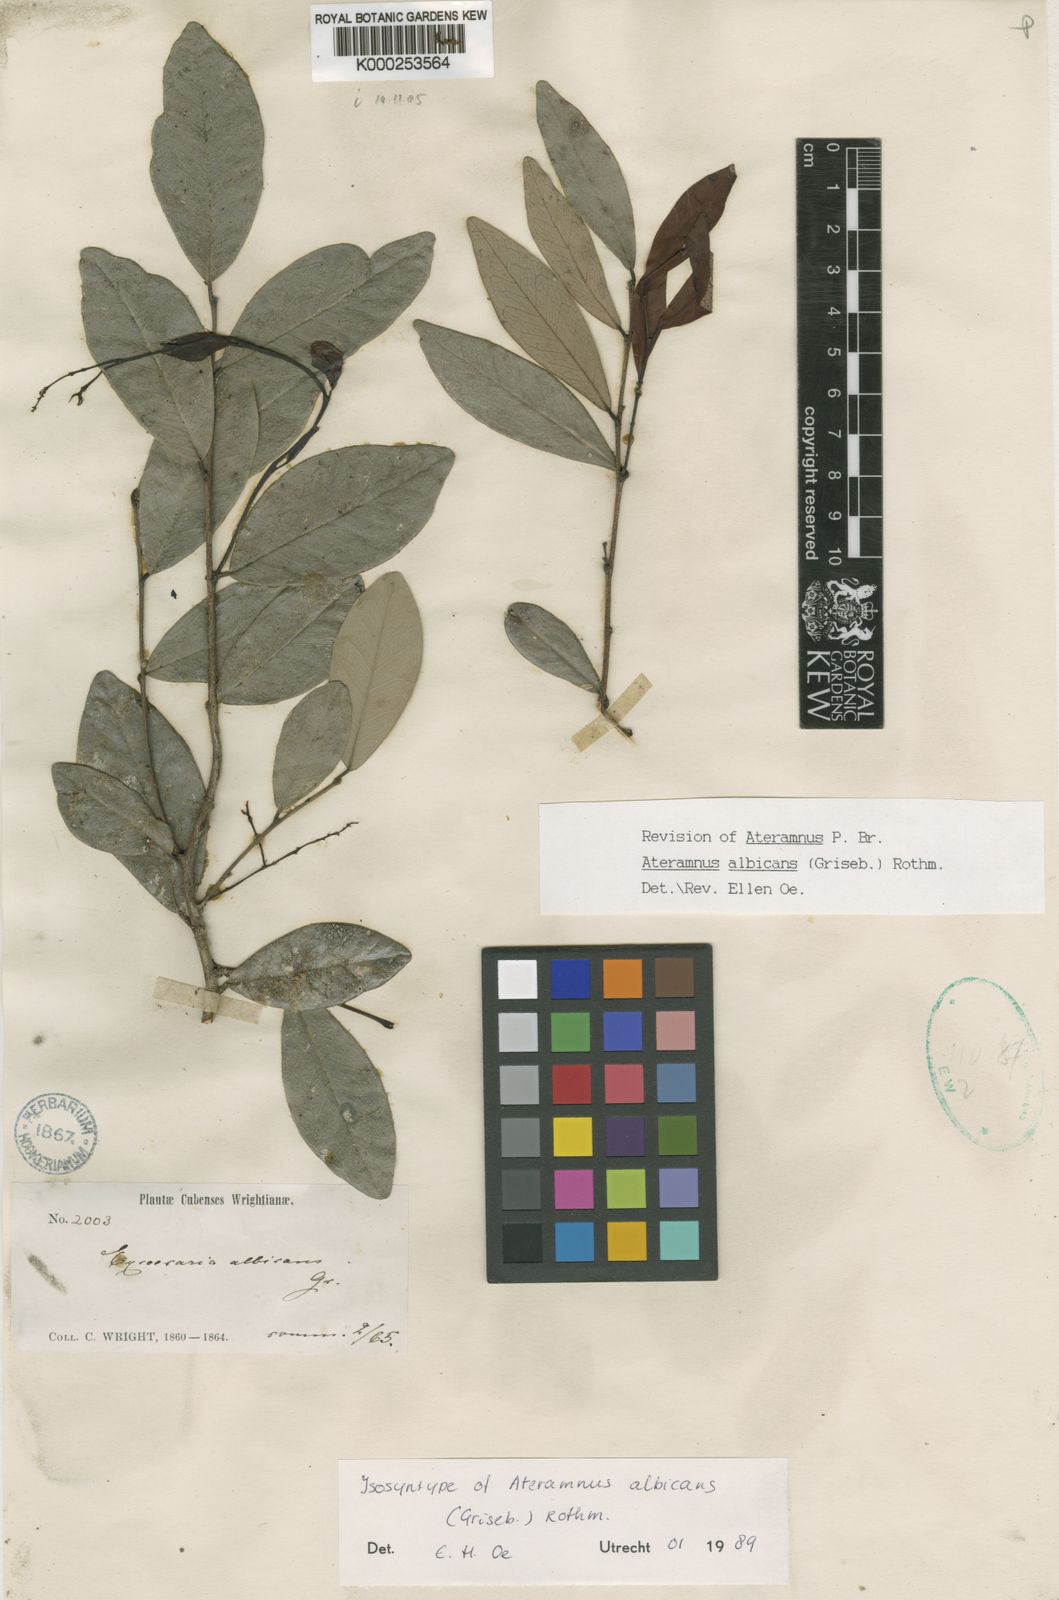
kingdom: Plantae
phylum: Tracheophyta
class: Magnoliopsida
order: Malpighiales
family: Euphorbiaceae
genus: Gymnanthes
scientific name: Gymnanthes albicans
